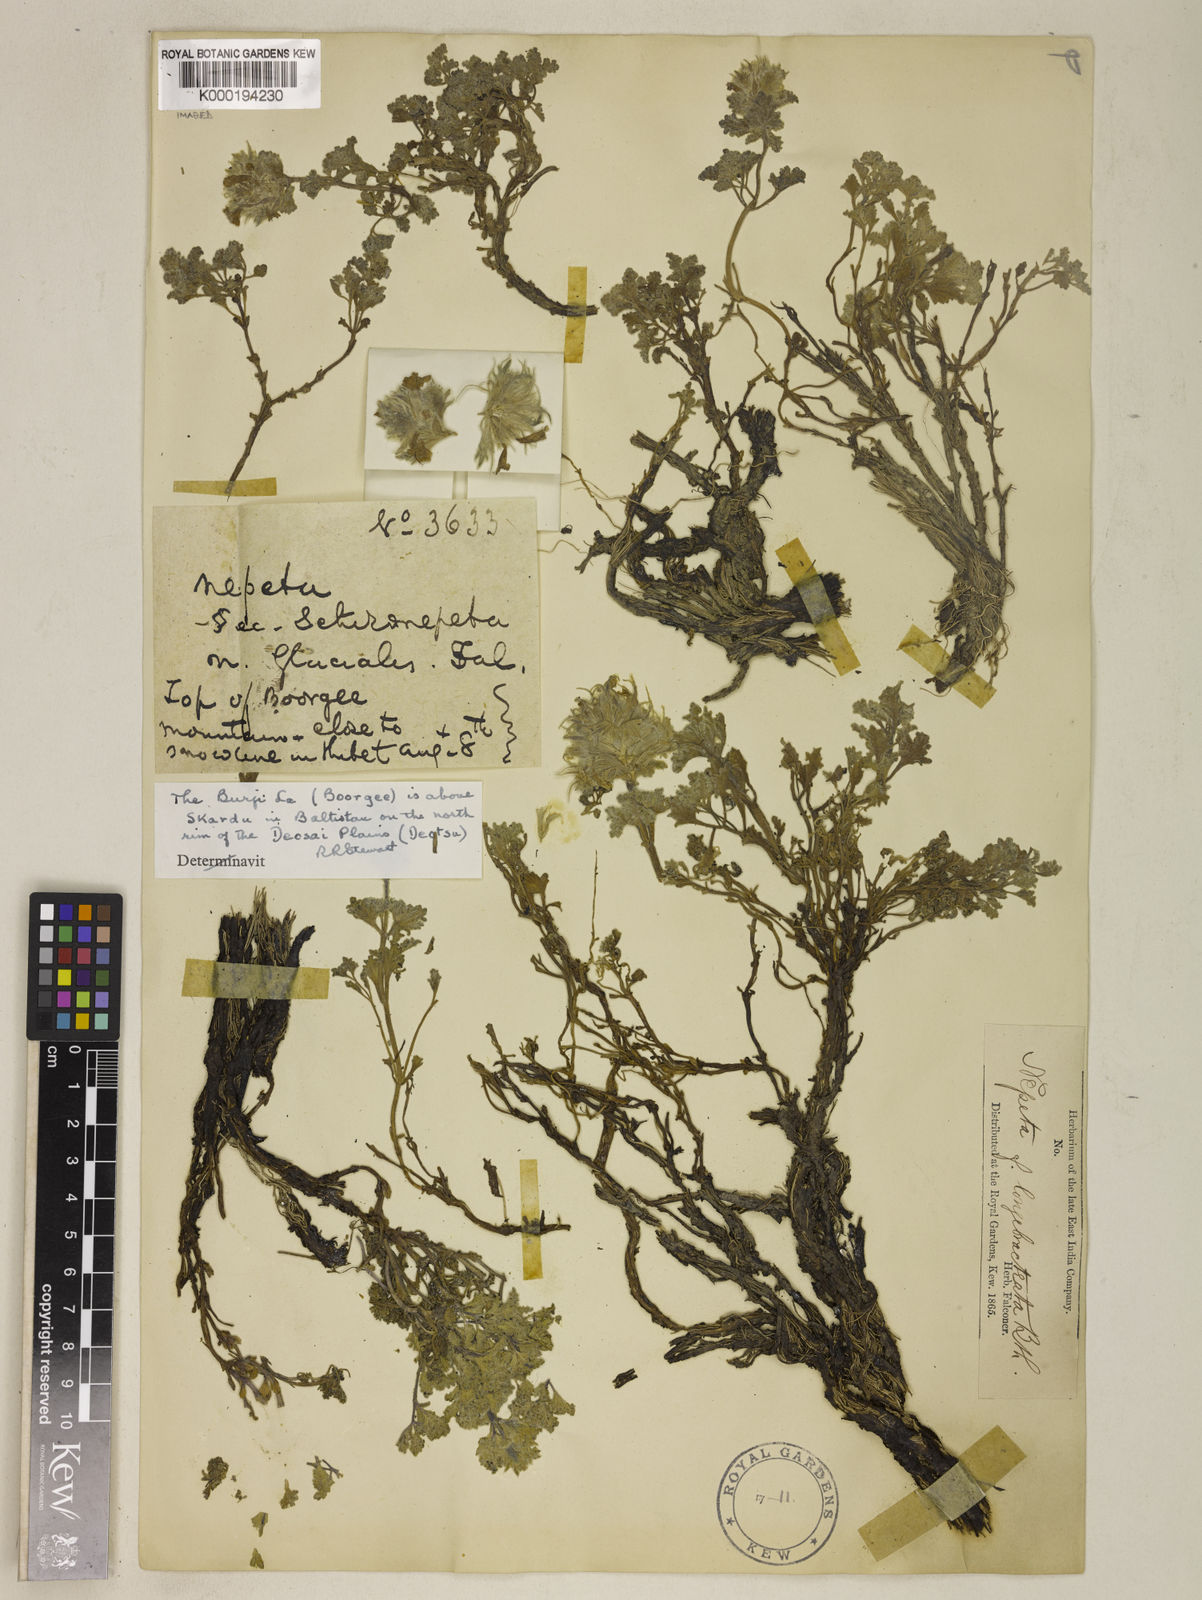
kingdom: Plantae
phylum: Tracheophyta
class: Magnoliopsida
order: Lamiales
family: Lamiaceae
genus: Nepeta
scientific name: Nepeta longibracteata
